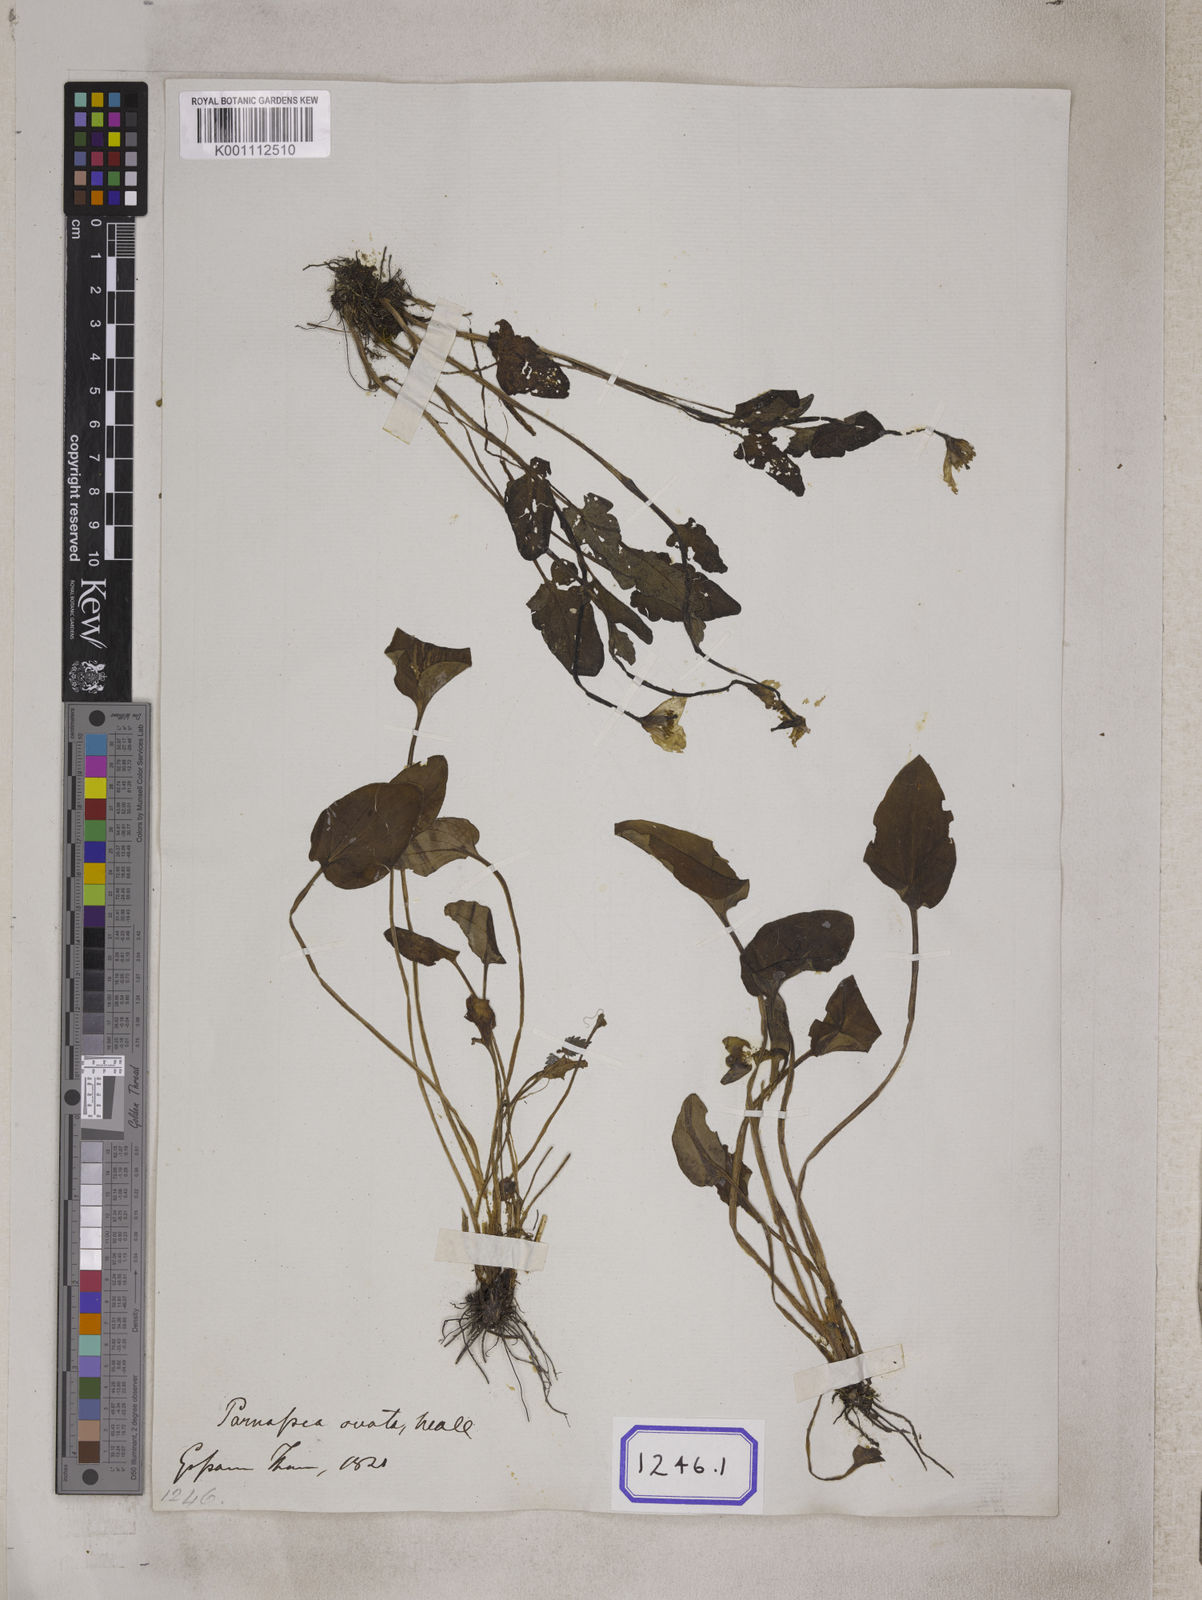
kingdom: Plantae
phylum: Tracheophyta
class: Magnoliopsida
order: Celastrales
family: Parnassiaceae
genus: Parnassia
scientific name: Parnassia
